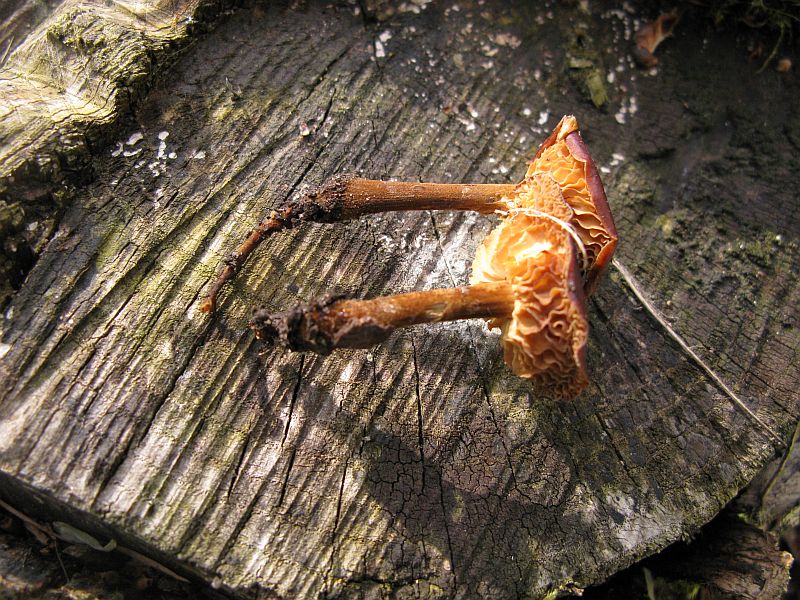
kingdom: Fungi
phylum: Basidiomycota
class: Agaricomycetes
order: Agaricales
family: Physalacriaceae
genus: Flammulina
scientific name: Flammulina velutipes
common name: gul fløjlsfod
